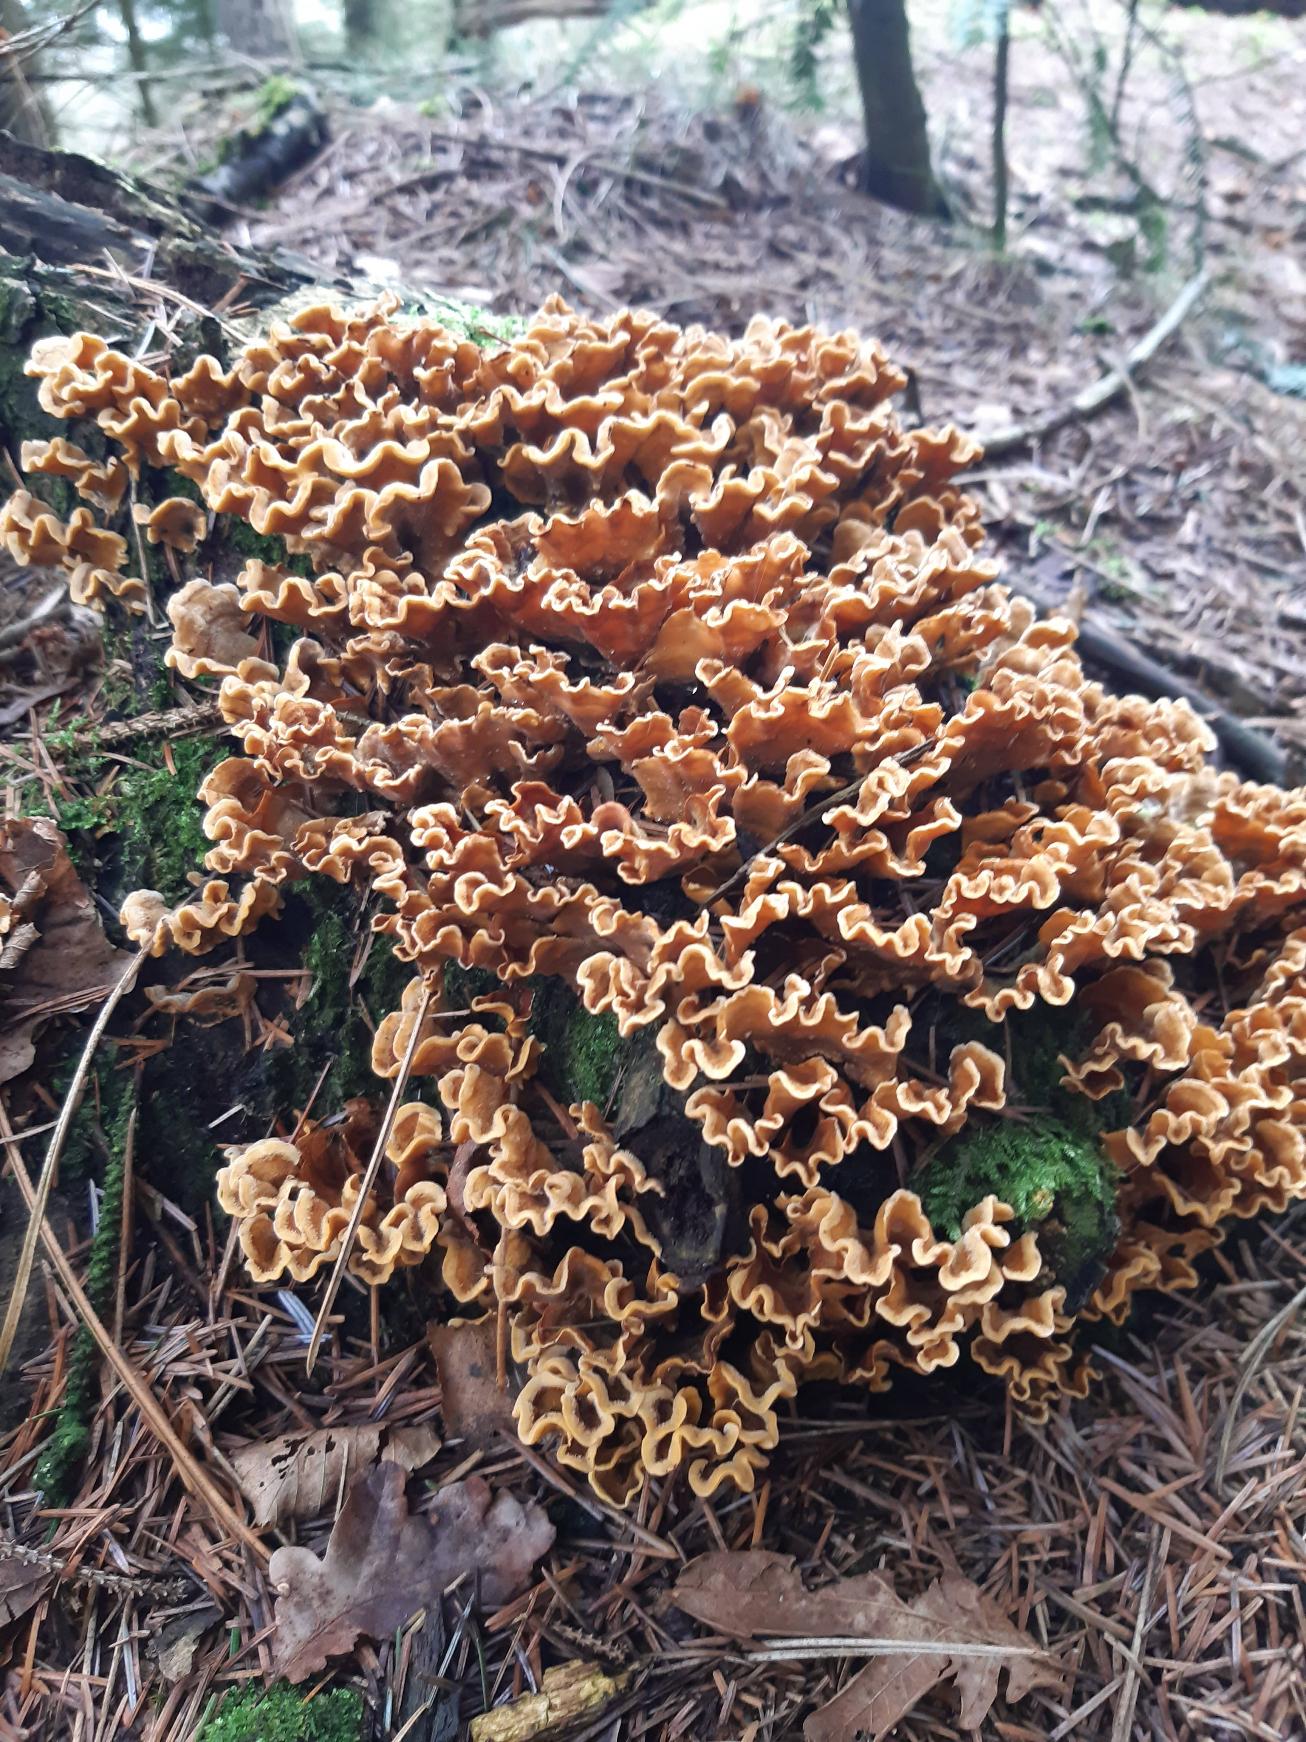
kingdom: Fungi
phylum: Basidiomycota
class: Agaricomycetes
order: Russulales
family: Stereaceae
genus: Stereum
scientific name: Stereum hirsutum
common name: Håret lædersvamp
